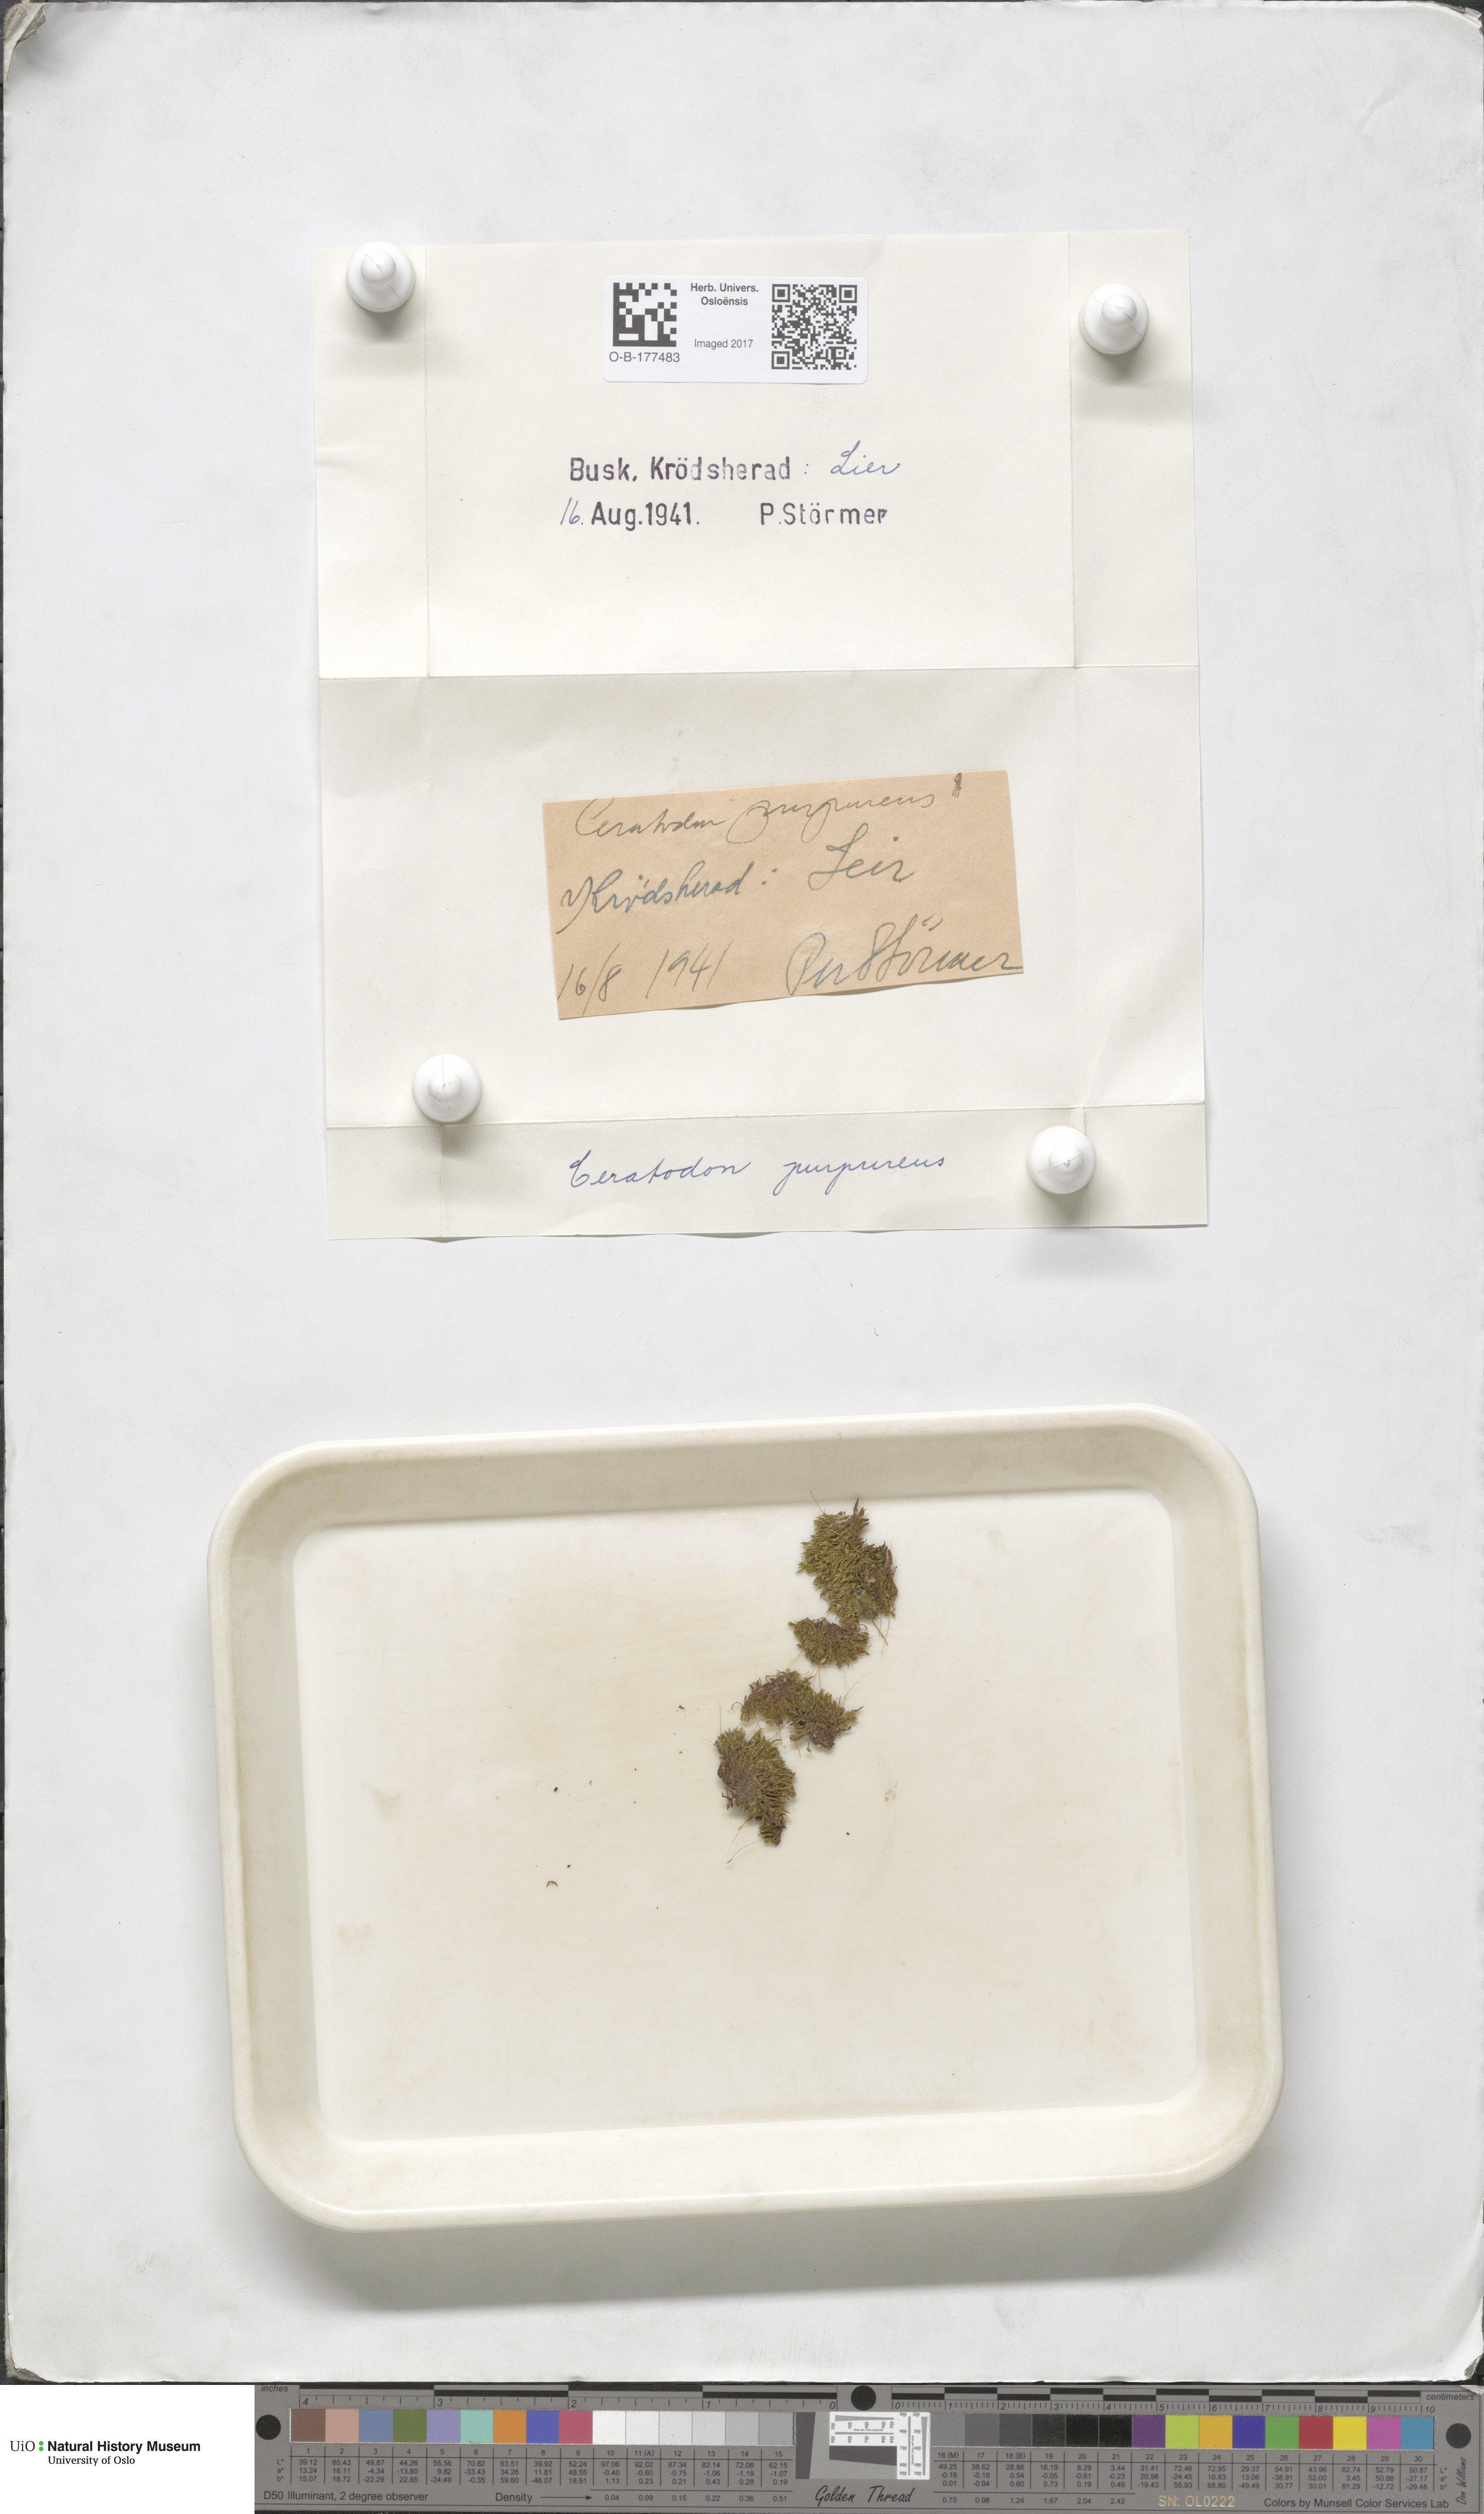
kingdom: Plantae
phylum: Bryophyta
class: Bryopsida
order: Dicranales
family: Ditrichaceae
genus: Ceratodon
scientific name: Ceratodon purpureus
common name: Redshank
